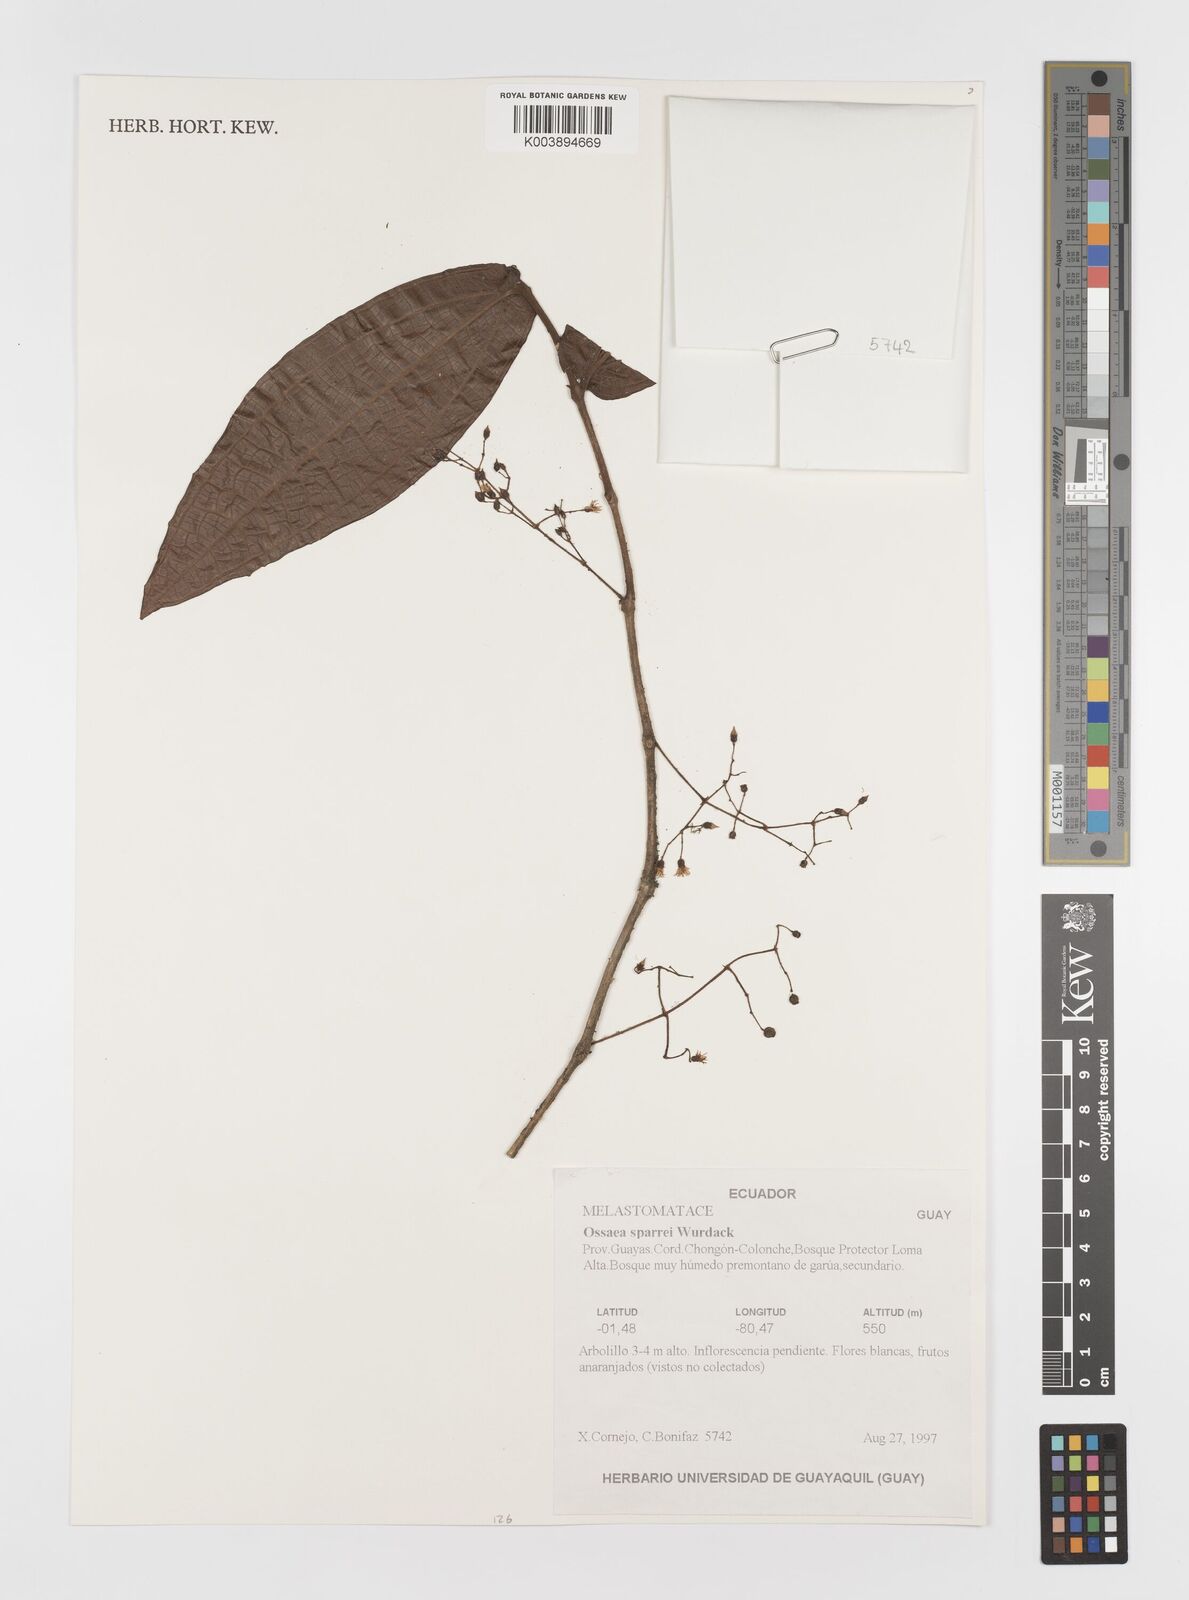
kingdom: Plantae
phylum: Tracheophyta
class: Magnoliopsida
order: Myrtales
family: Melastomataceae
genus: Miconia
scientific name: Miconia bensparrei
